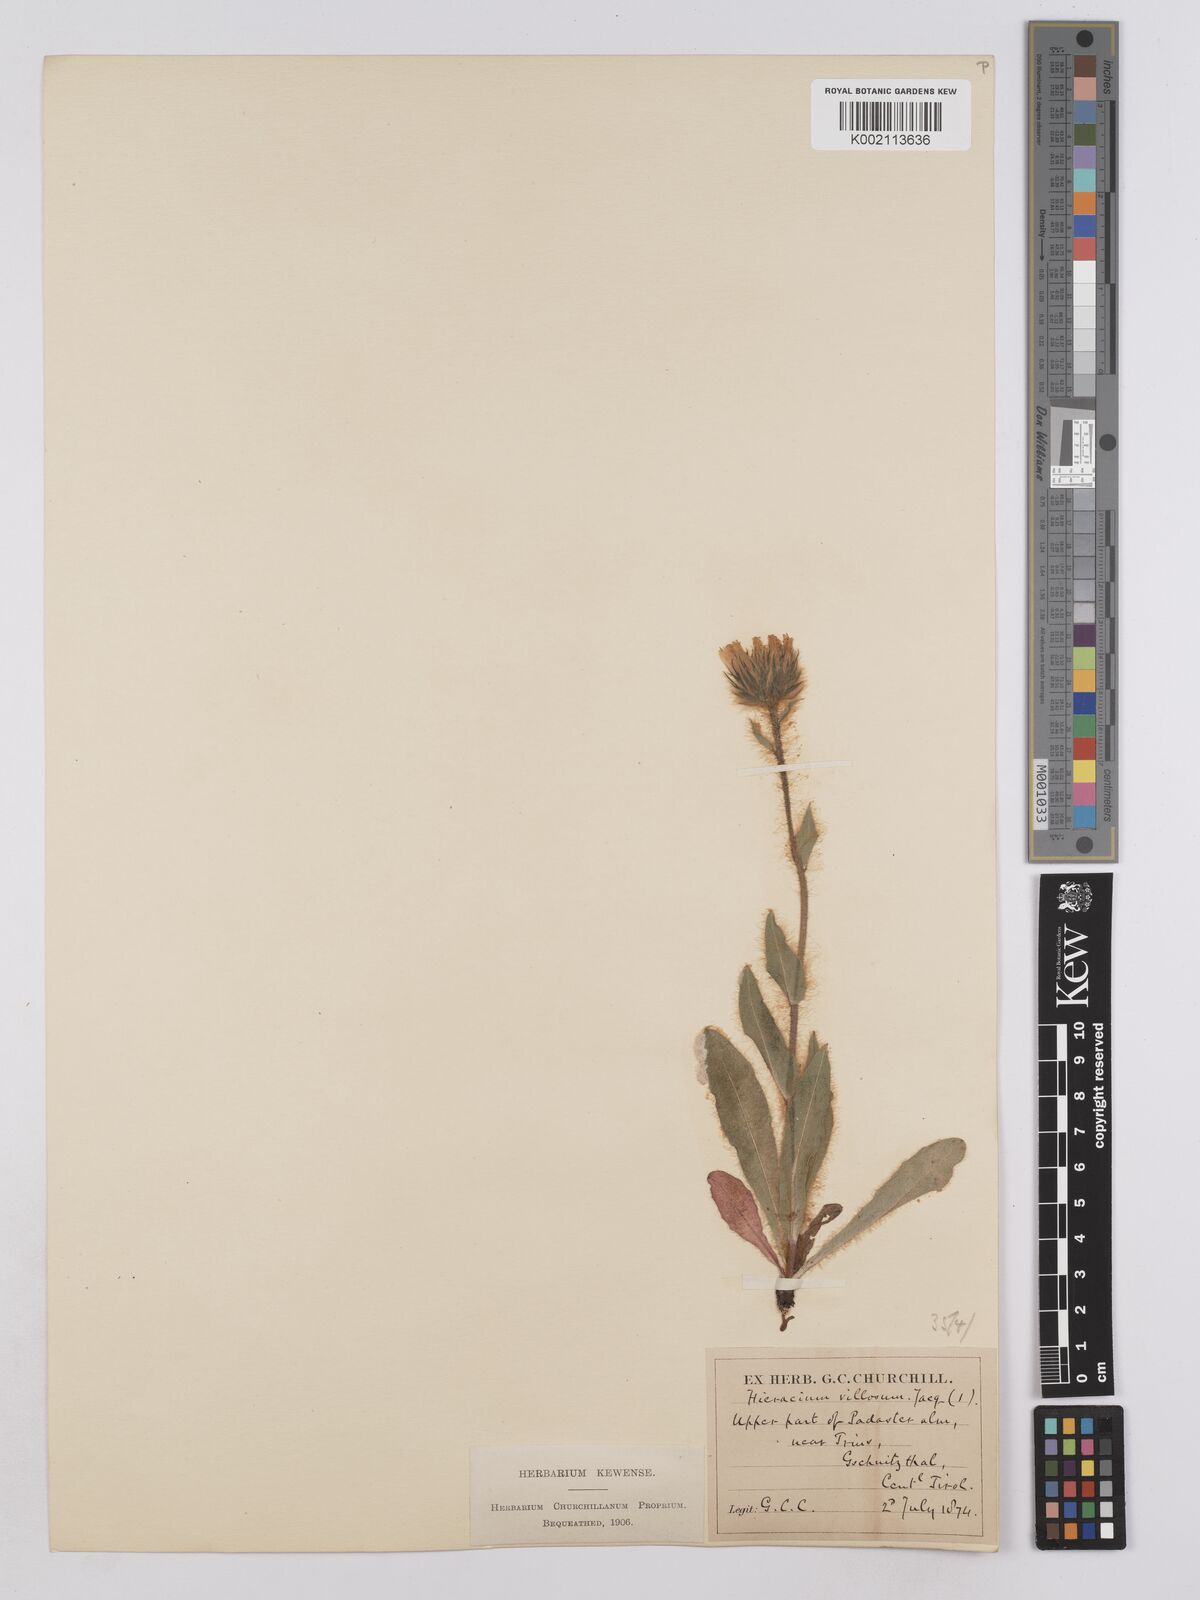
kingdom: Plantae
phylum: Tracheophyta
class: Magnoliopsida
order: Asterales
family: Asteraceae
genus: Hieracium
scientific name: Hieracium villosum
